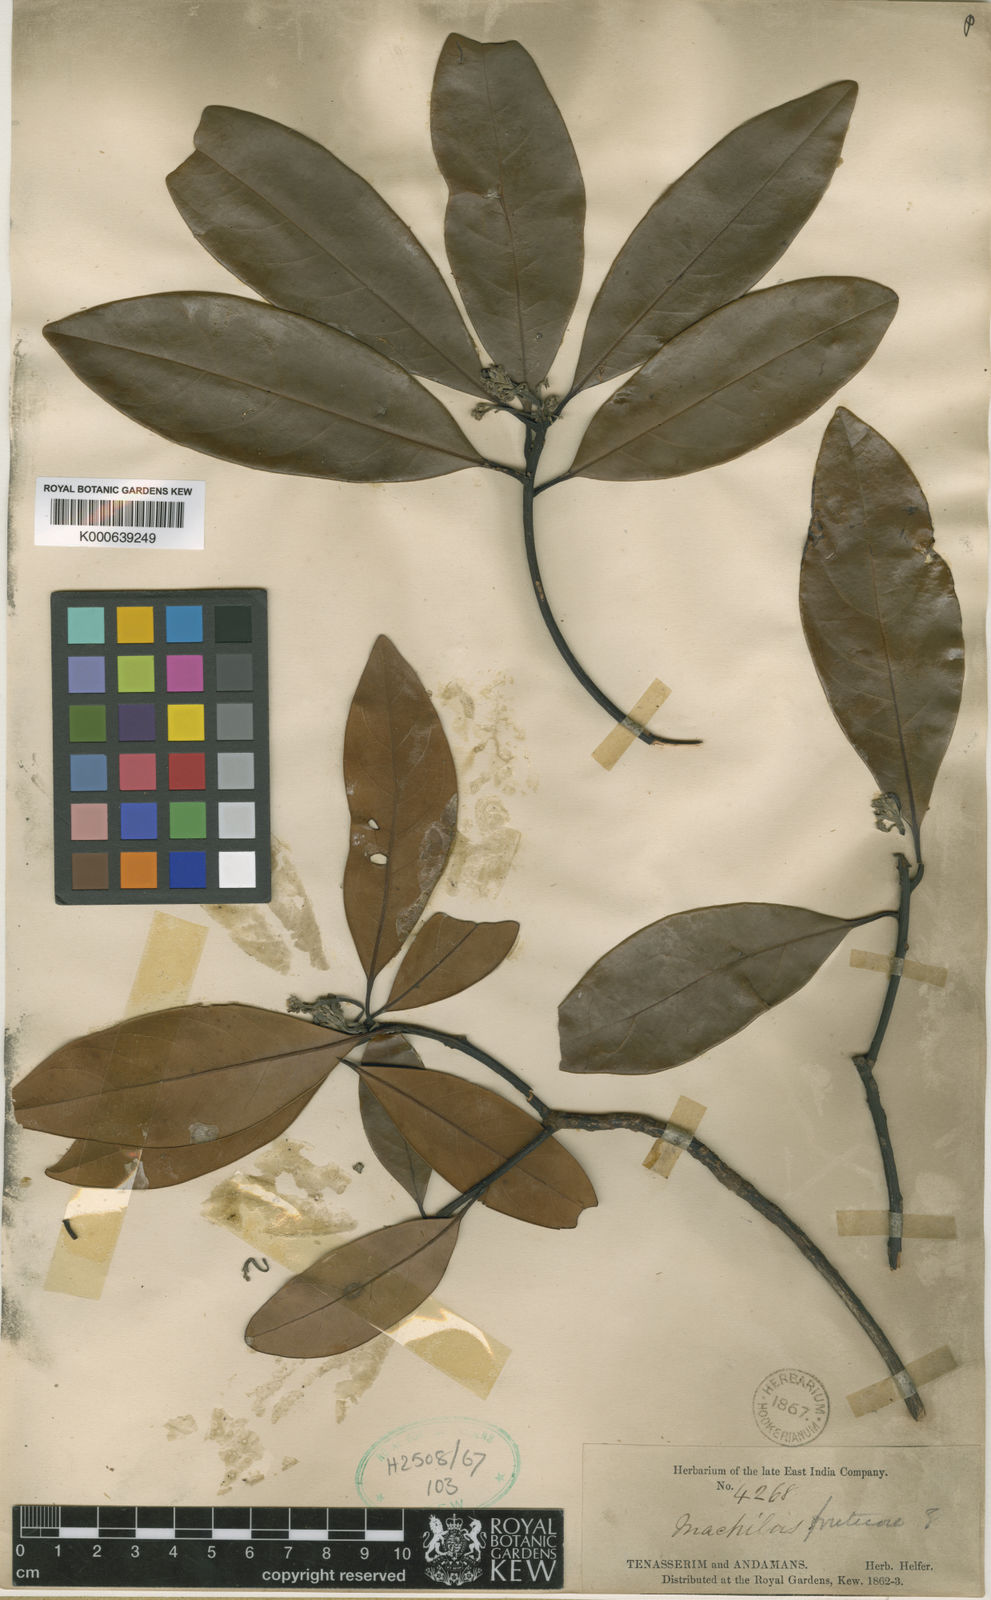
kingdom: Plantae
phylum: Tracheophyta
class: Magnoliopsida
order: Laurales
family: Lauraceae
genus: Machilus
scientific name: Machilus fruticosa
